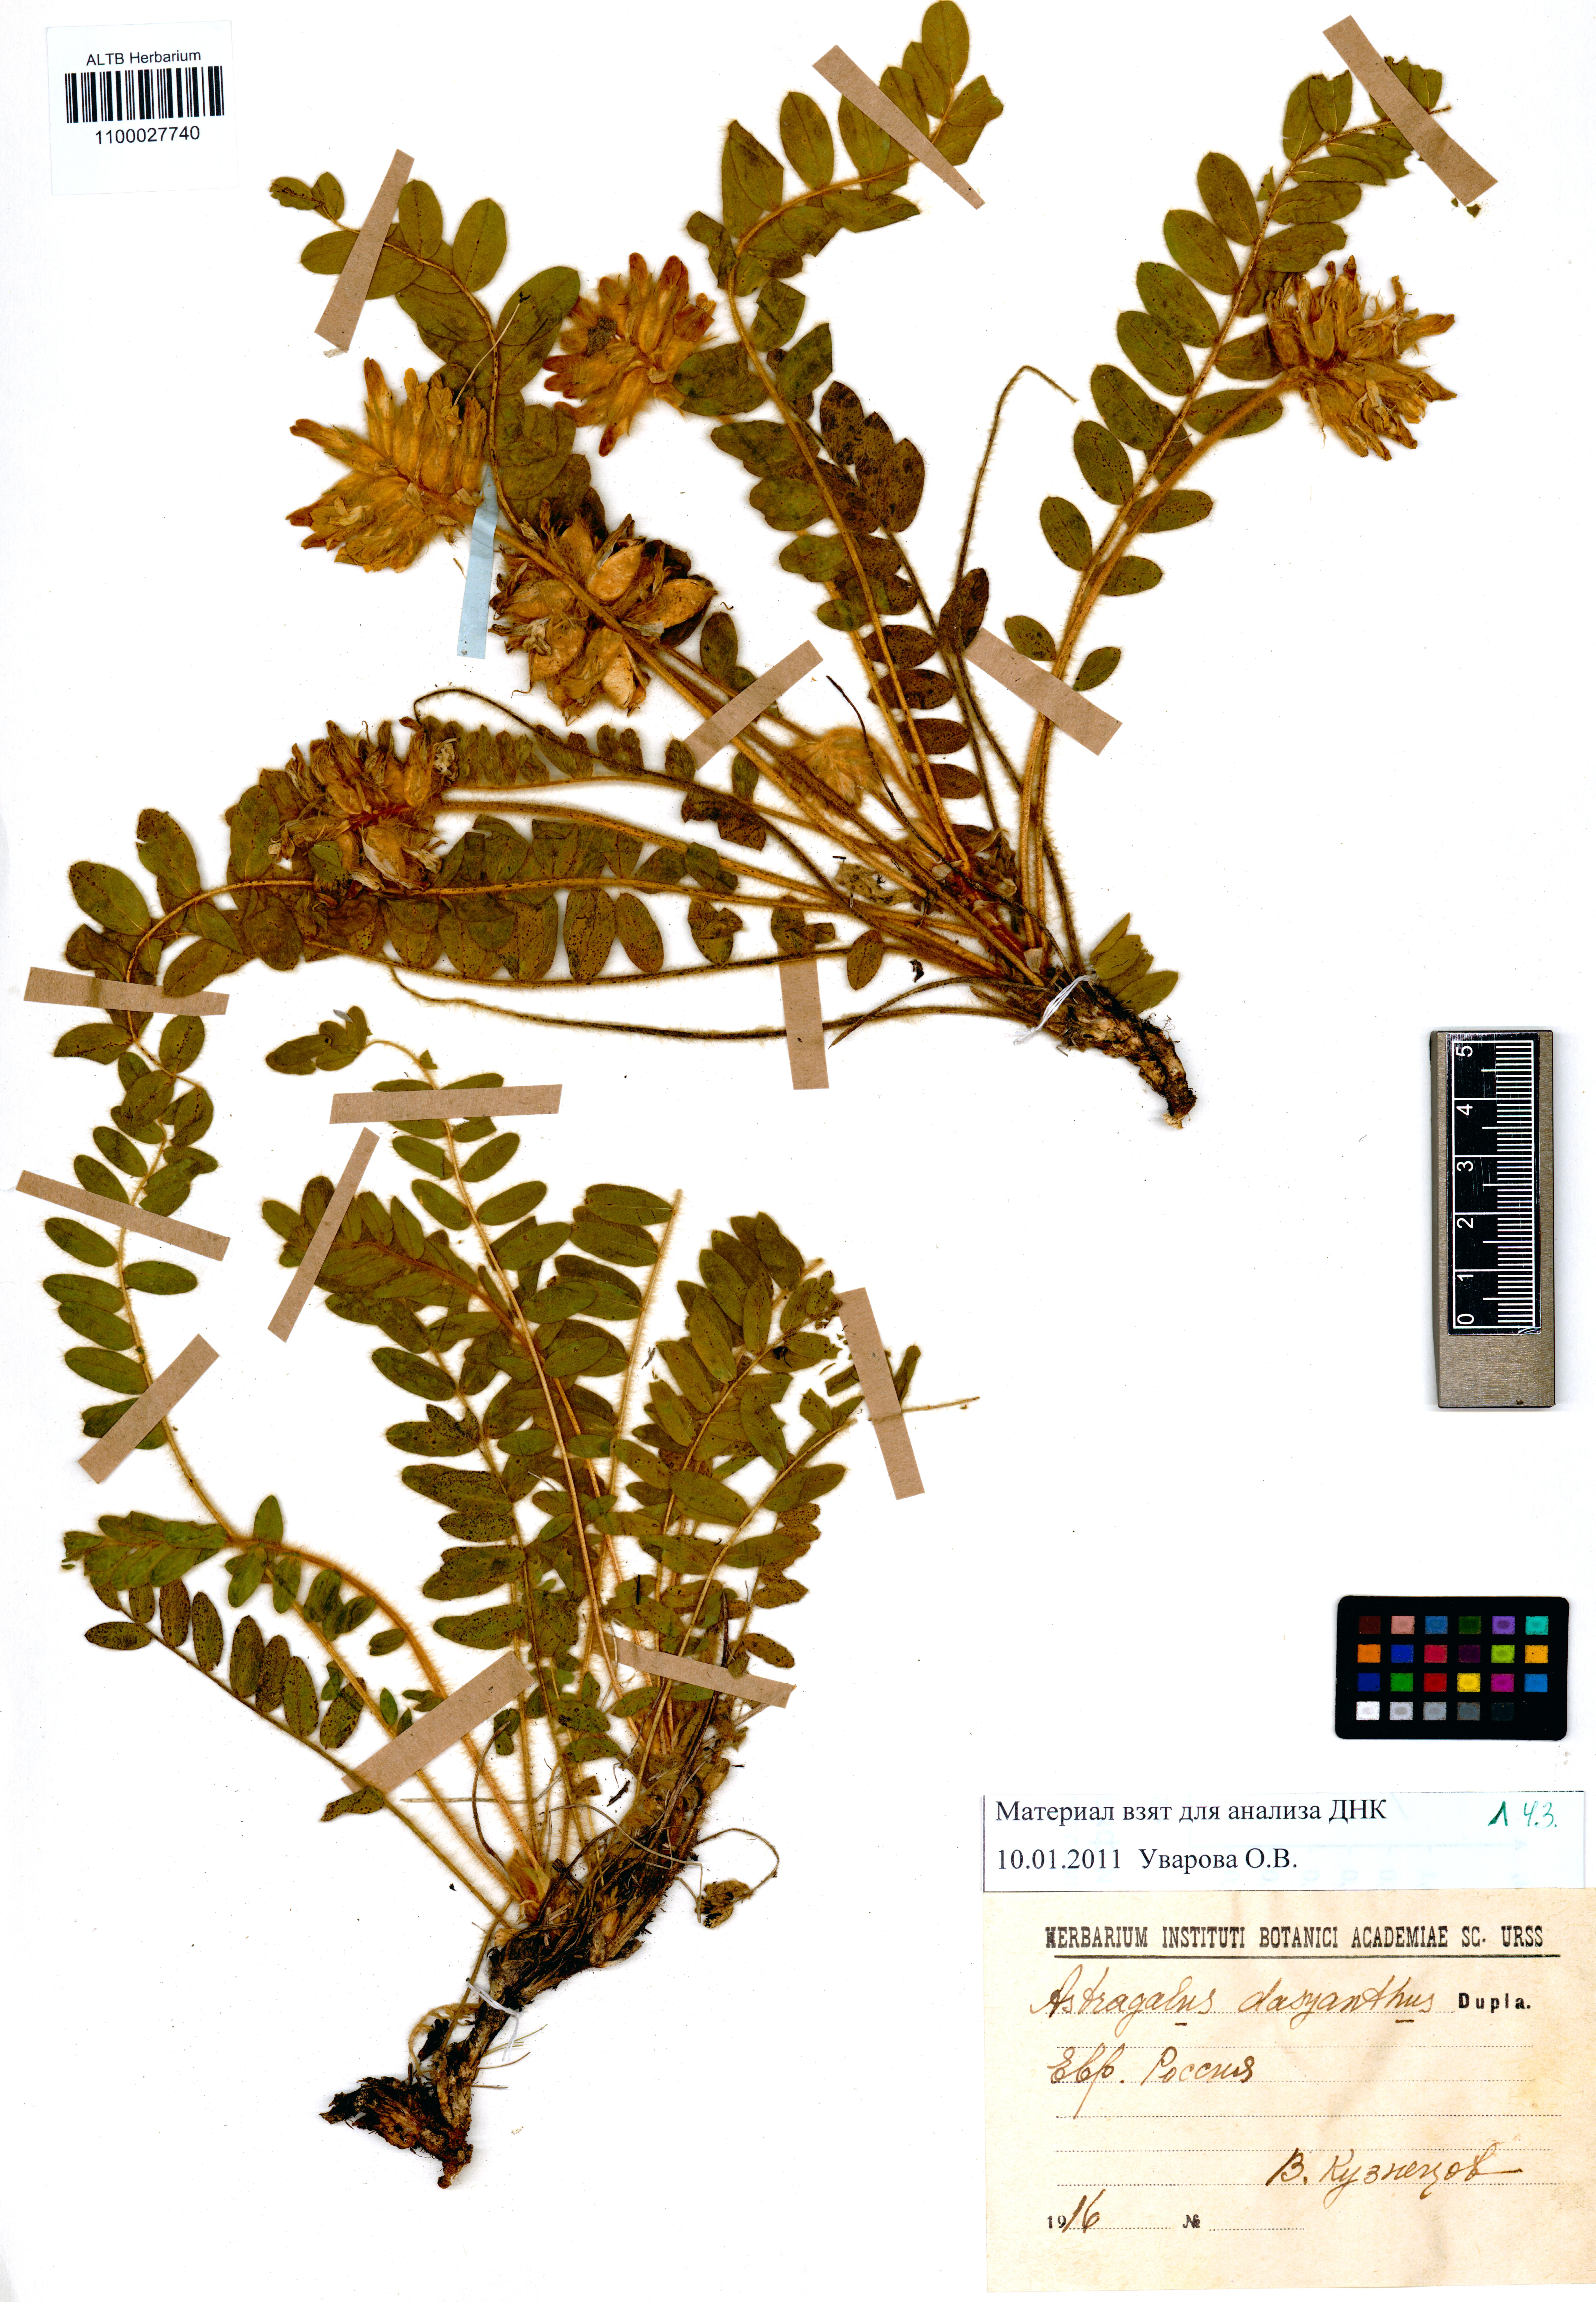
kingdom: Plantae
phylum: Tracheophyta
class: Magnoliopsida
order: Fabales
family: Fabaceae
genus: Astragalus
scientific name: Astragalus dasyanthus
